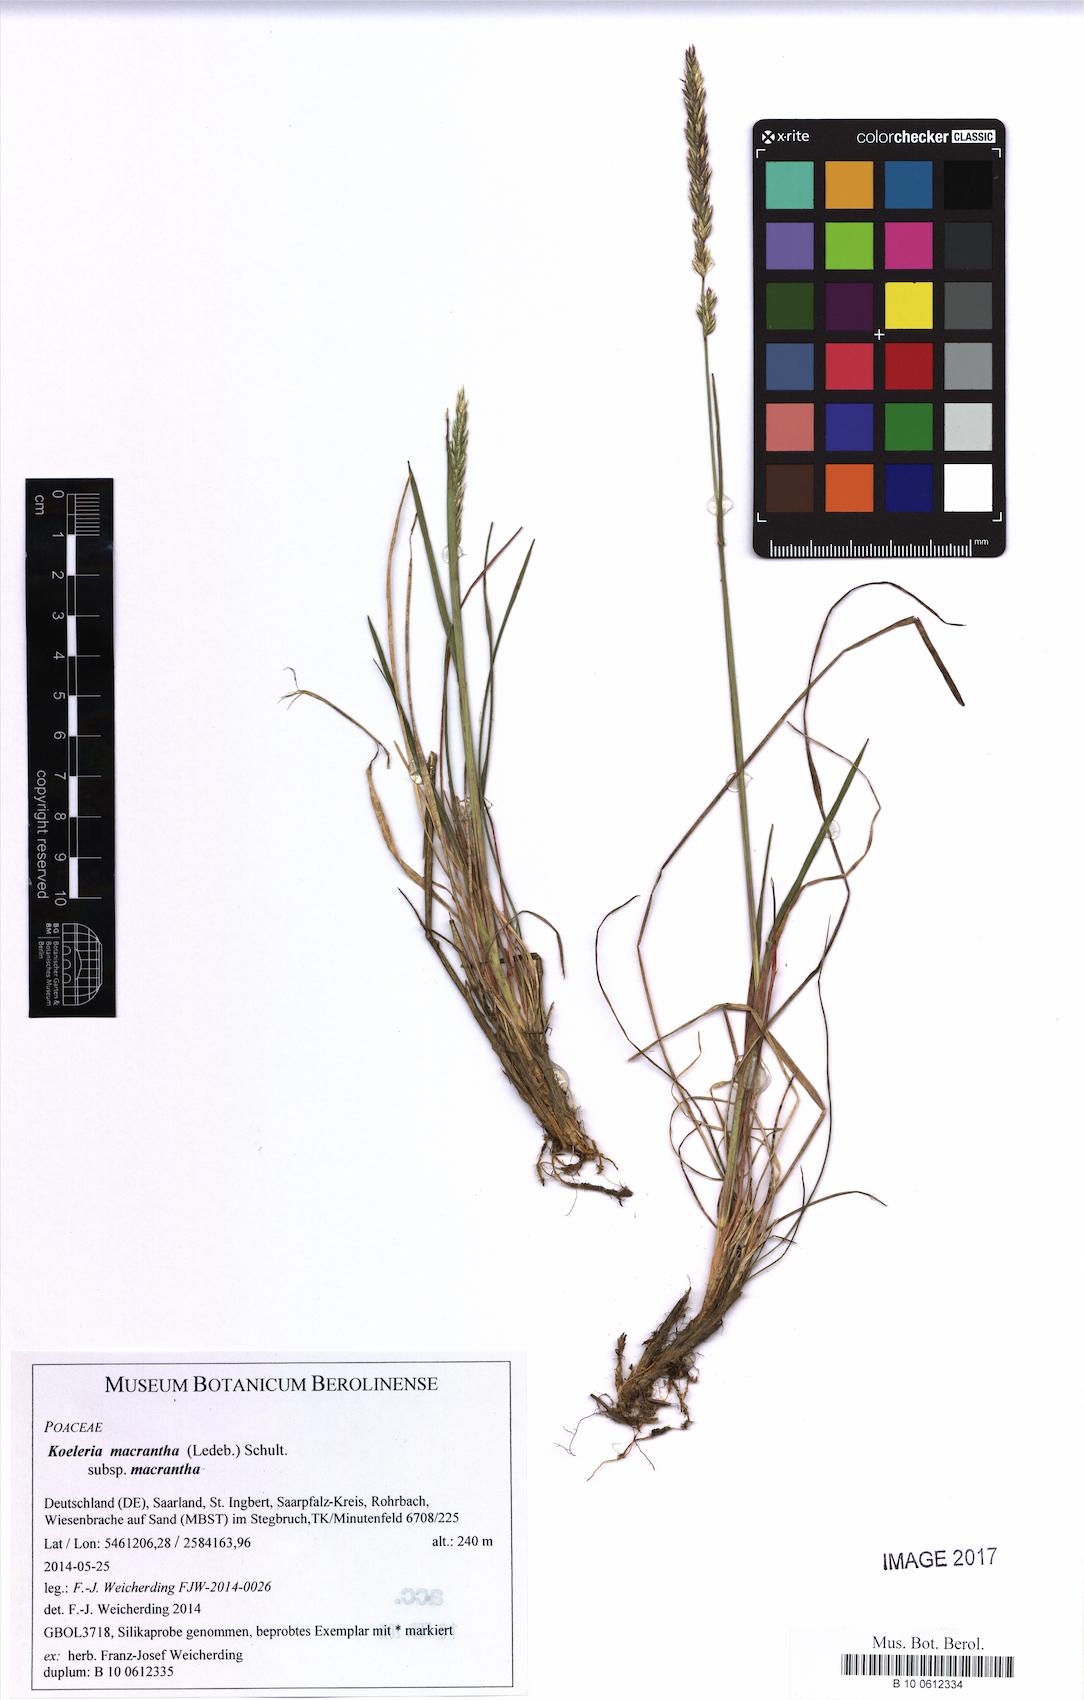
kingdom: Plantae
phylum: Tracheophyta
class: Liliopsida
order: Poales
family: Poaceae
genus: Koeleria
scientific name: Koeleria macrantha
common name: Crested hair-grass
